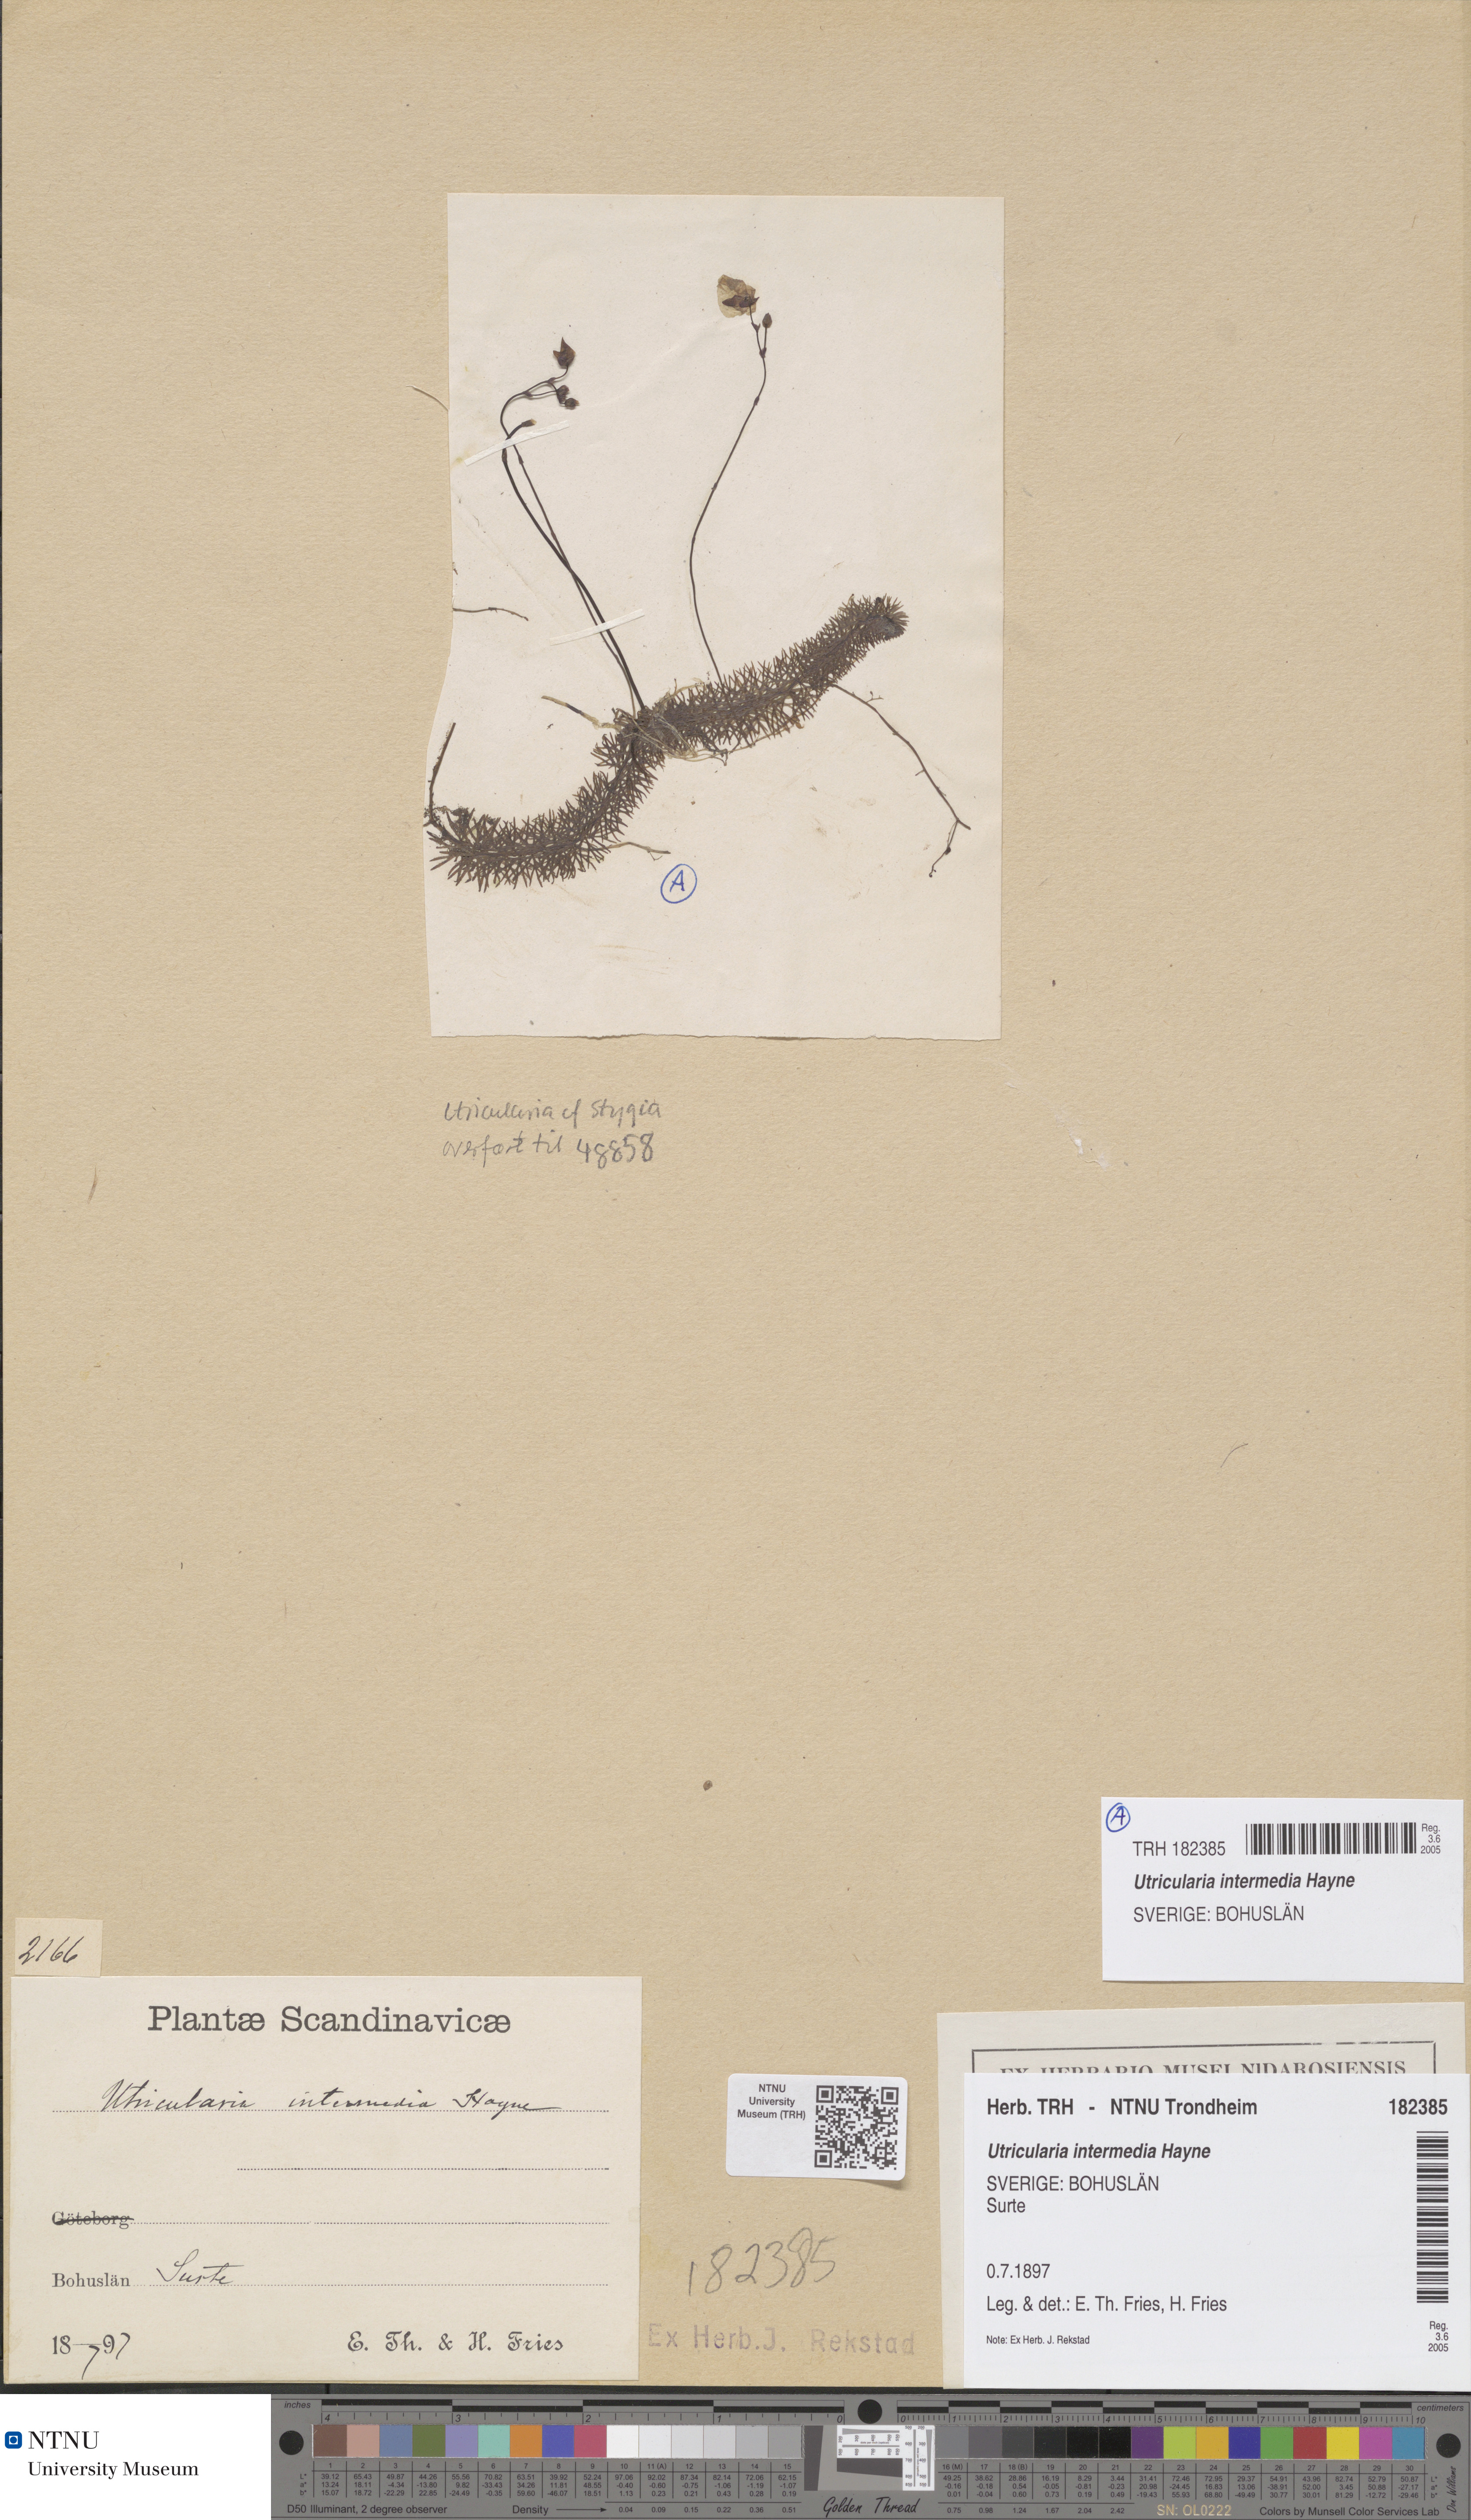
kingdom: Plantae
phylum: Tracheophyta
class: Magnoliopsida
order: Lamiales
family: Lentibulariaceae
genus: Utricularia
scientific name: Utricularia intermedia
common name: Intermediate bladderwort
